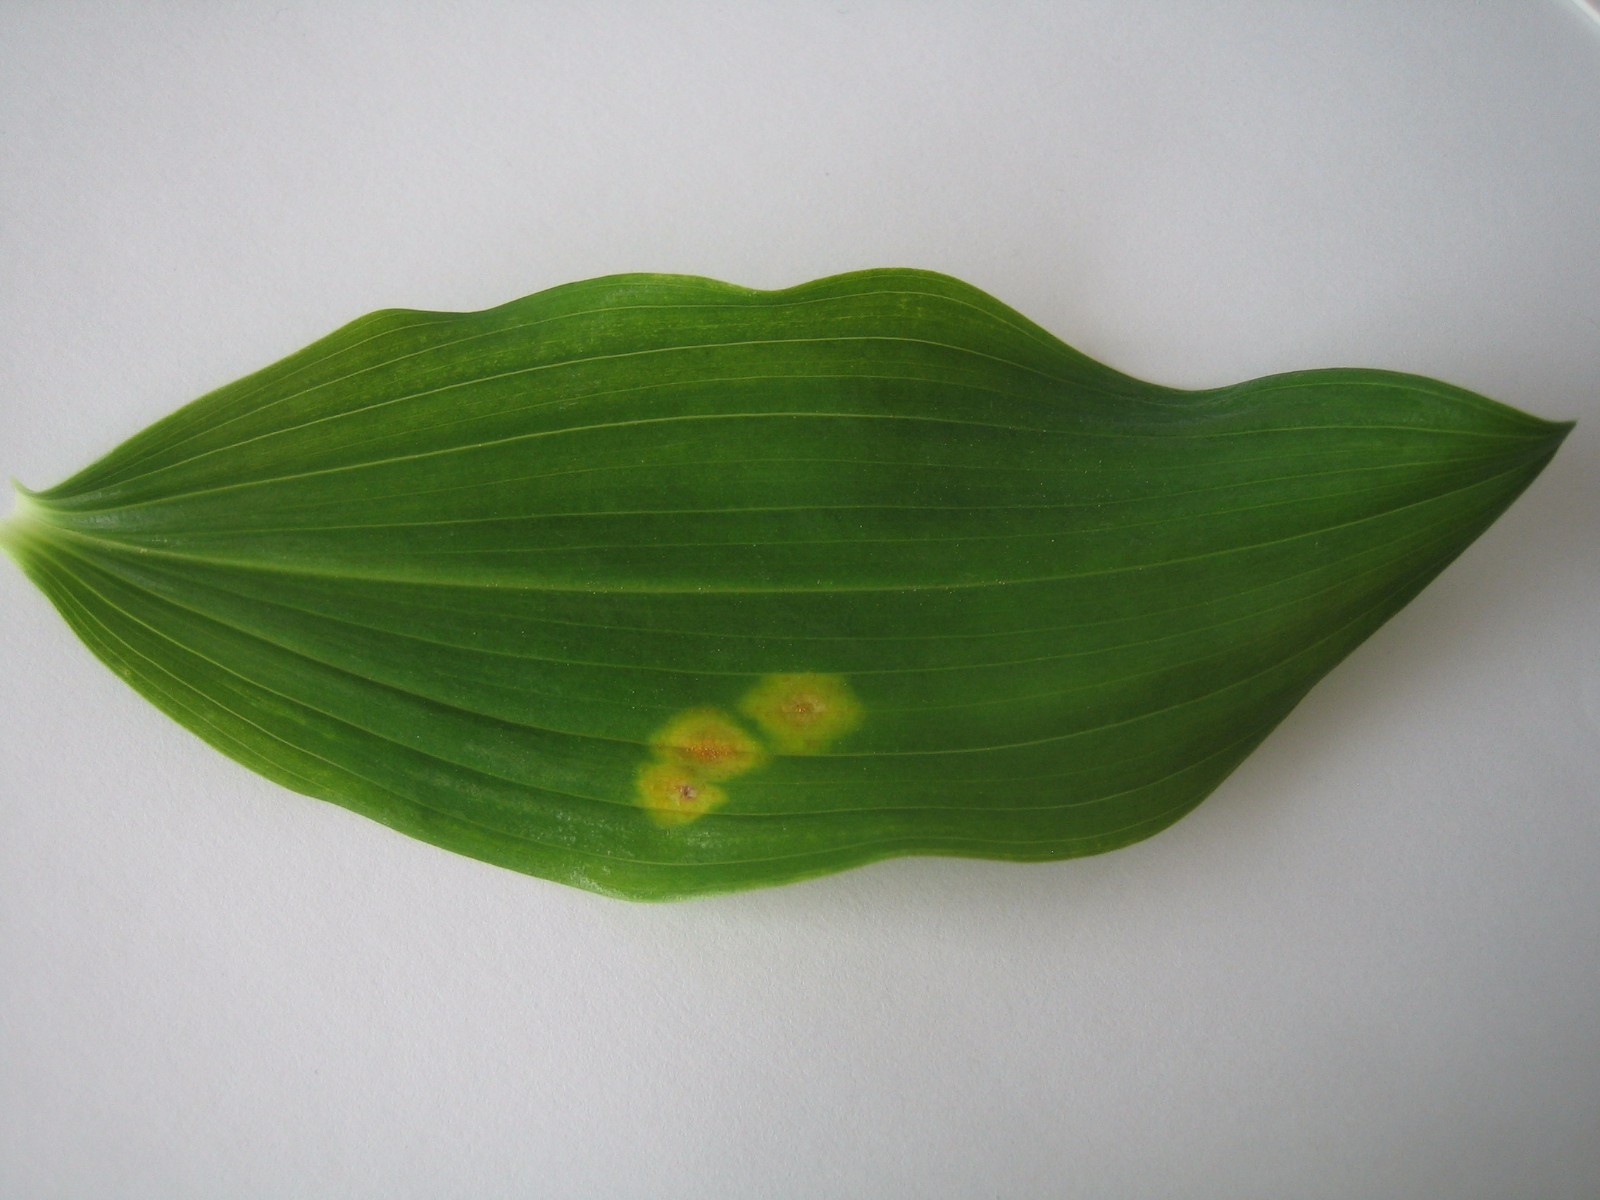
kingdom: Fungi
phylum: Basidiomycota
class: Pucciniomycetes
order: Pucciniales
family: Pucciniaceae
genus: Puccinia
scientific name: Puccinia sessilis
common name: Arum rust
